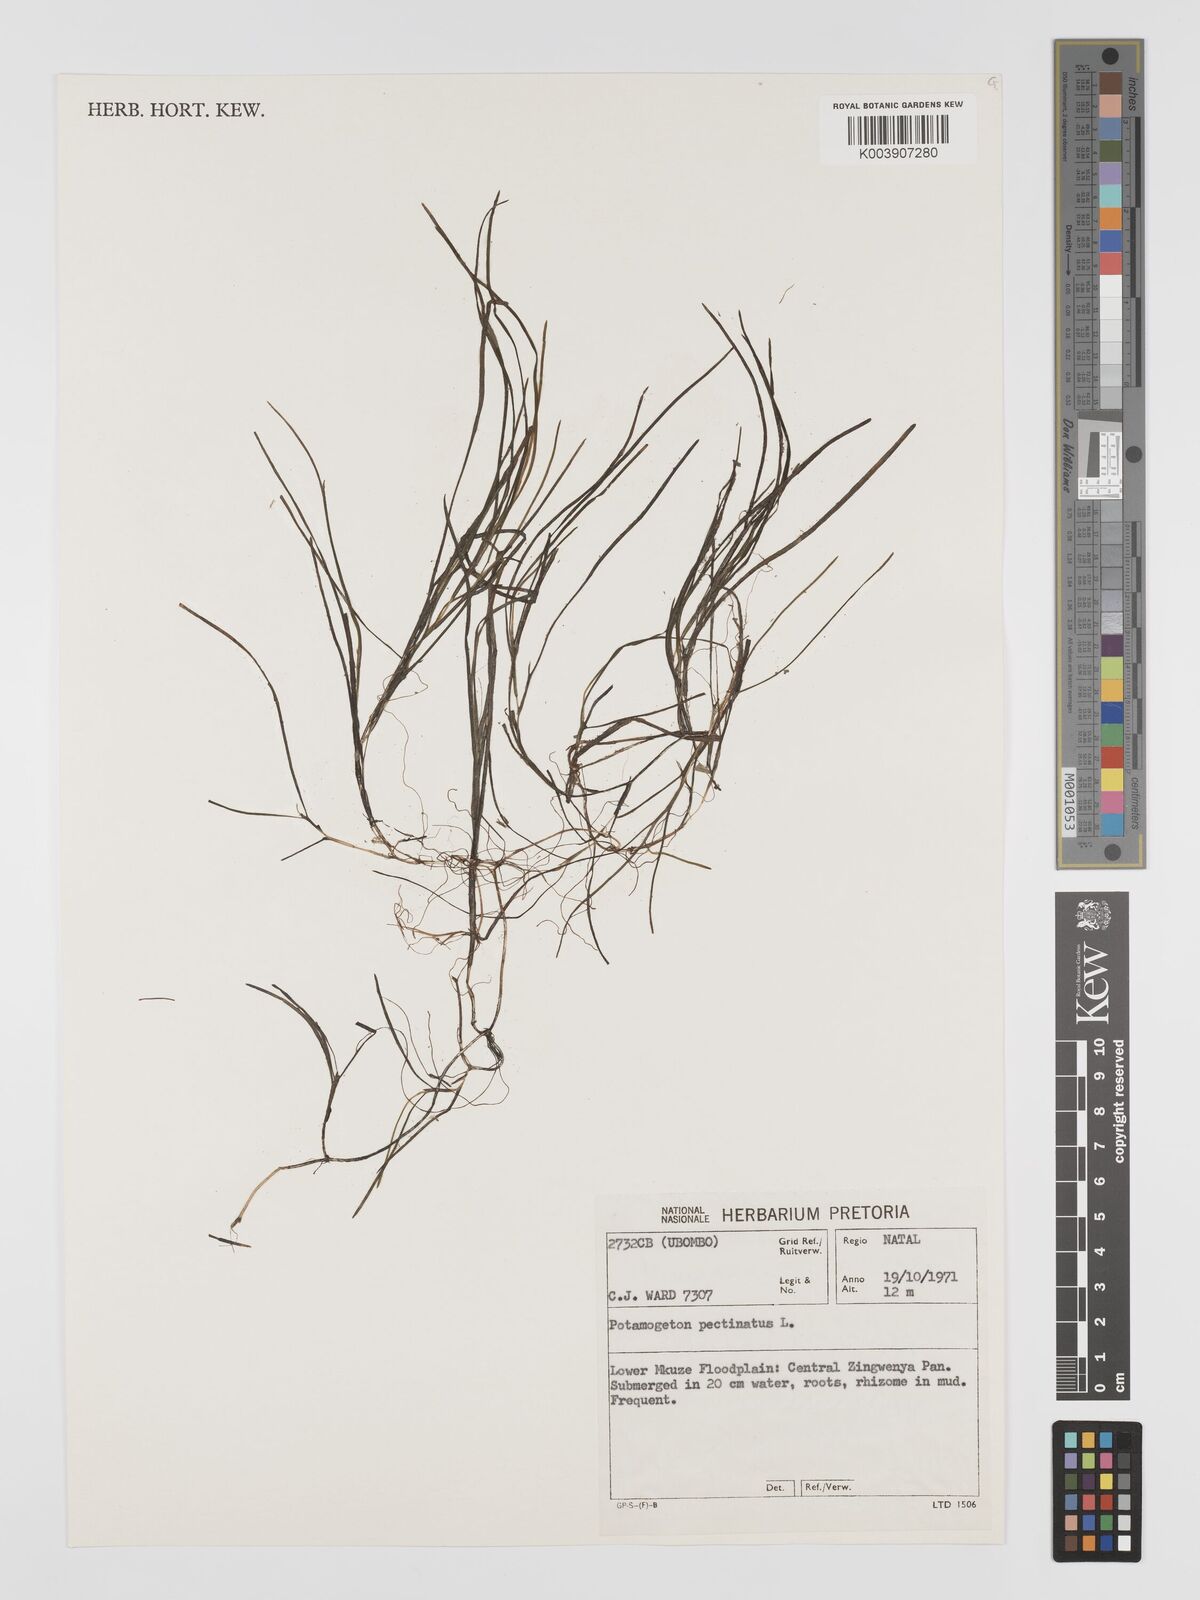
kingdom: Plantae
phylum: Tracheophyta
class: Liliopsida
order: Alismatales
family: Potamogetonaceae
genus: Stuckenia
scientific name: Stuckenia pectinata
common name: Sago pondweed
